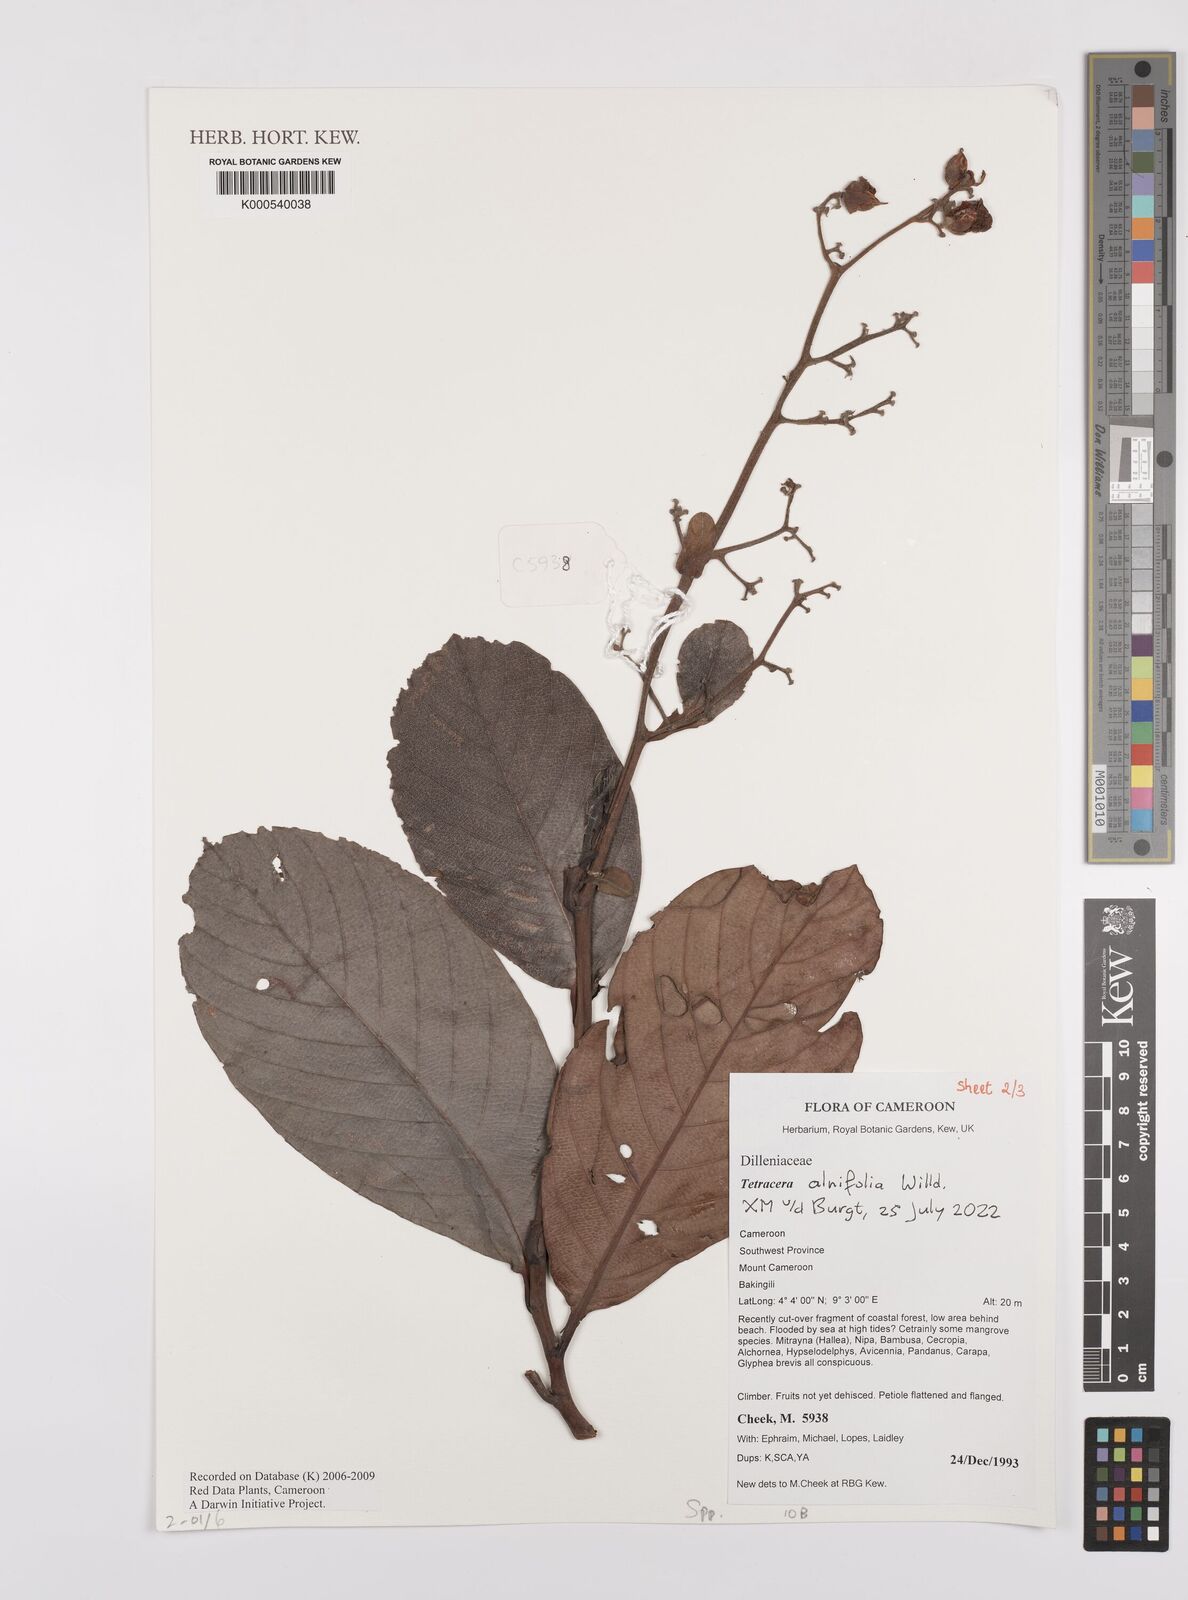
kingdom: Plantae
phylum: Tracheophyta
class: Magnoliopsida
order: Dilleniales
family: Dilleniaceae
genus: Tetracera
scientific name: Tetracera
